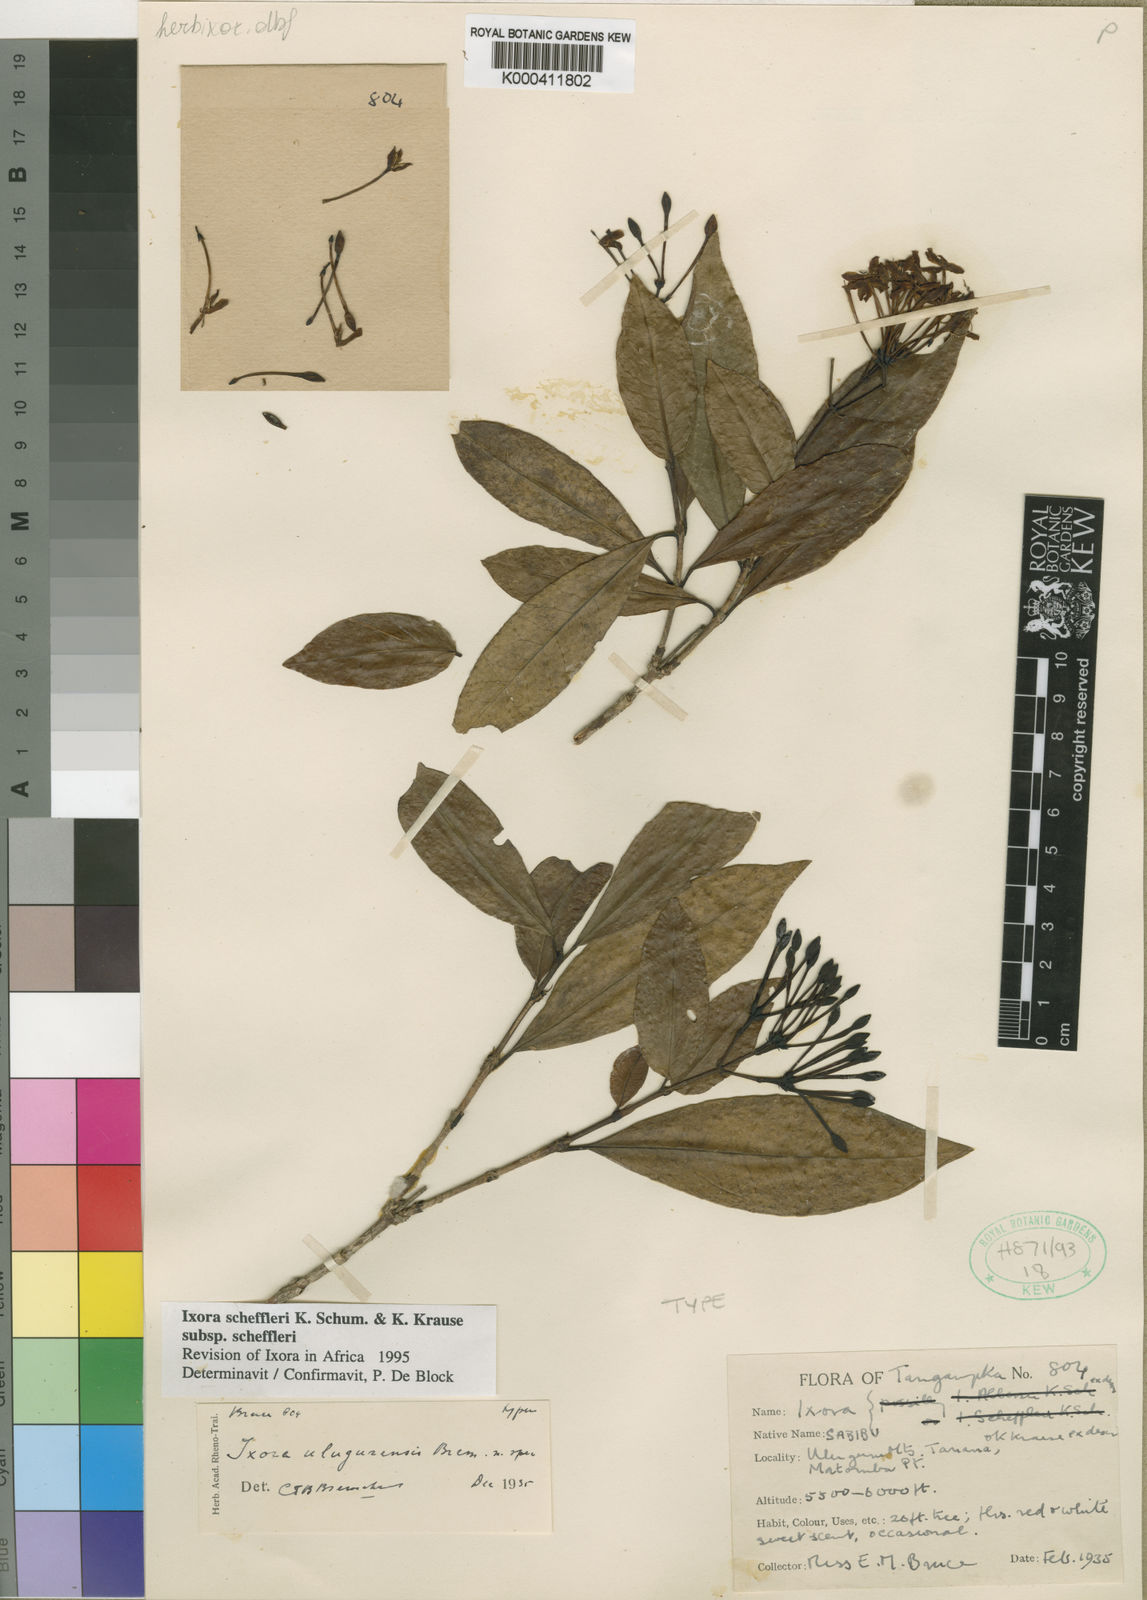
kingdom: Plantae
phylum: Tracheophyta
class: Magnoliopsida
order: Gentianales
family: Rubiaceae
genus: Ixora
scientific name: Ixora scheffleri
